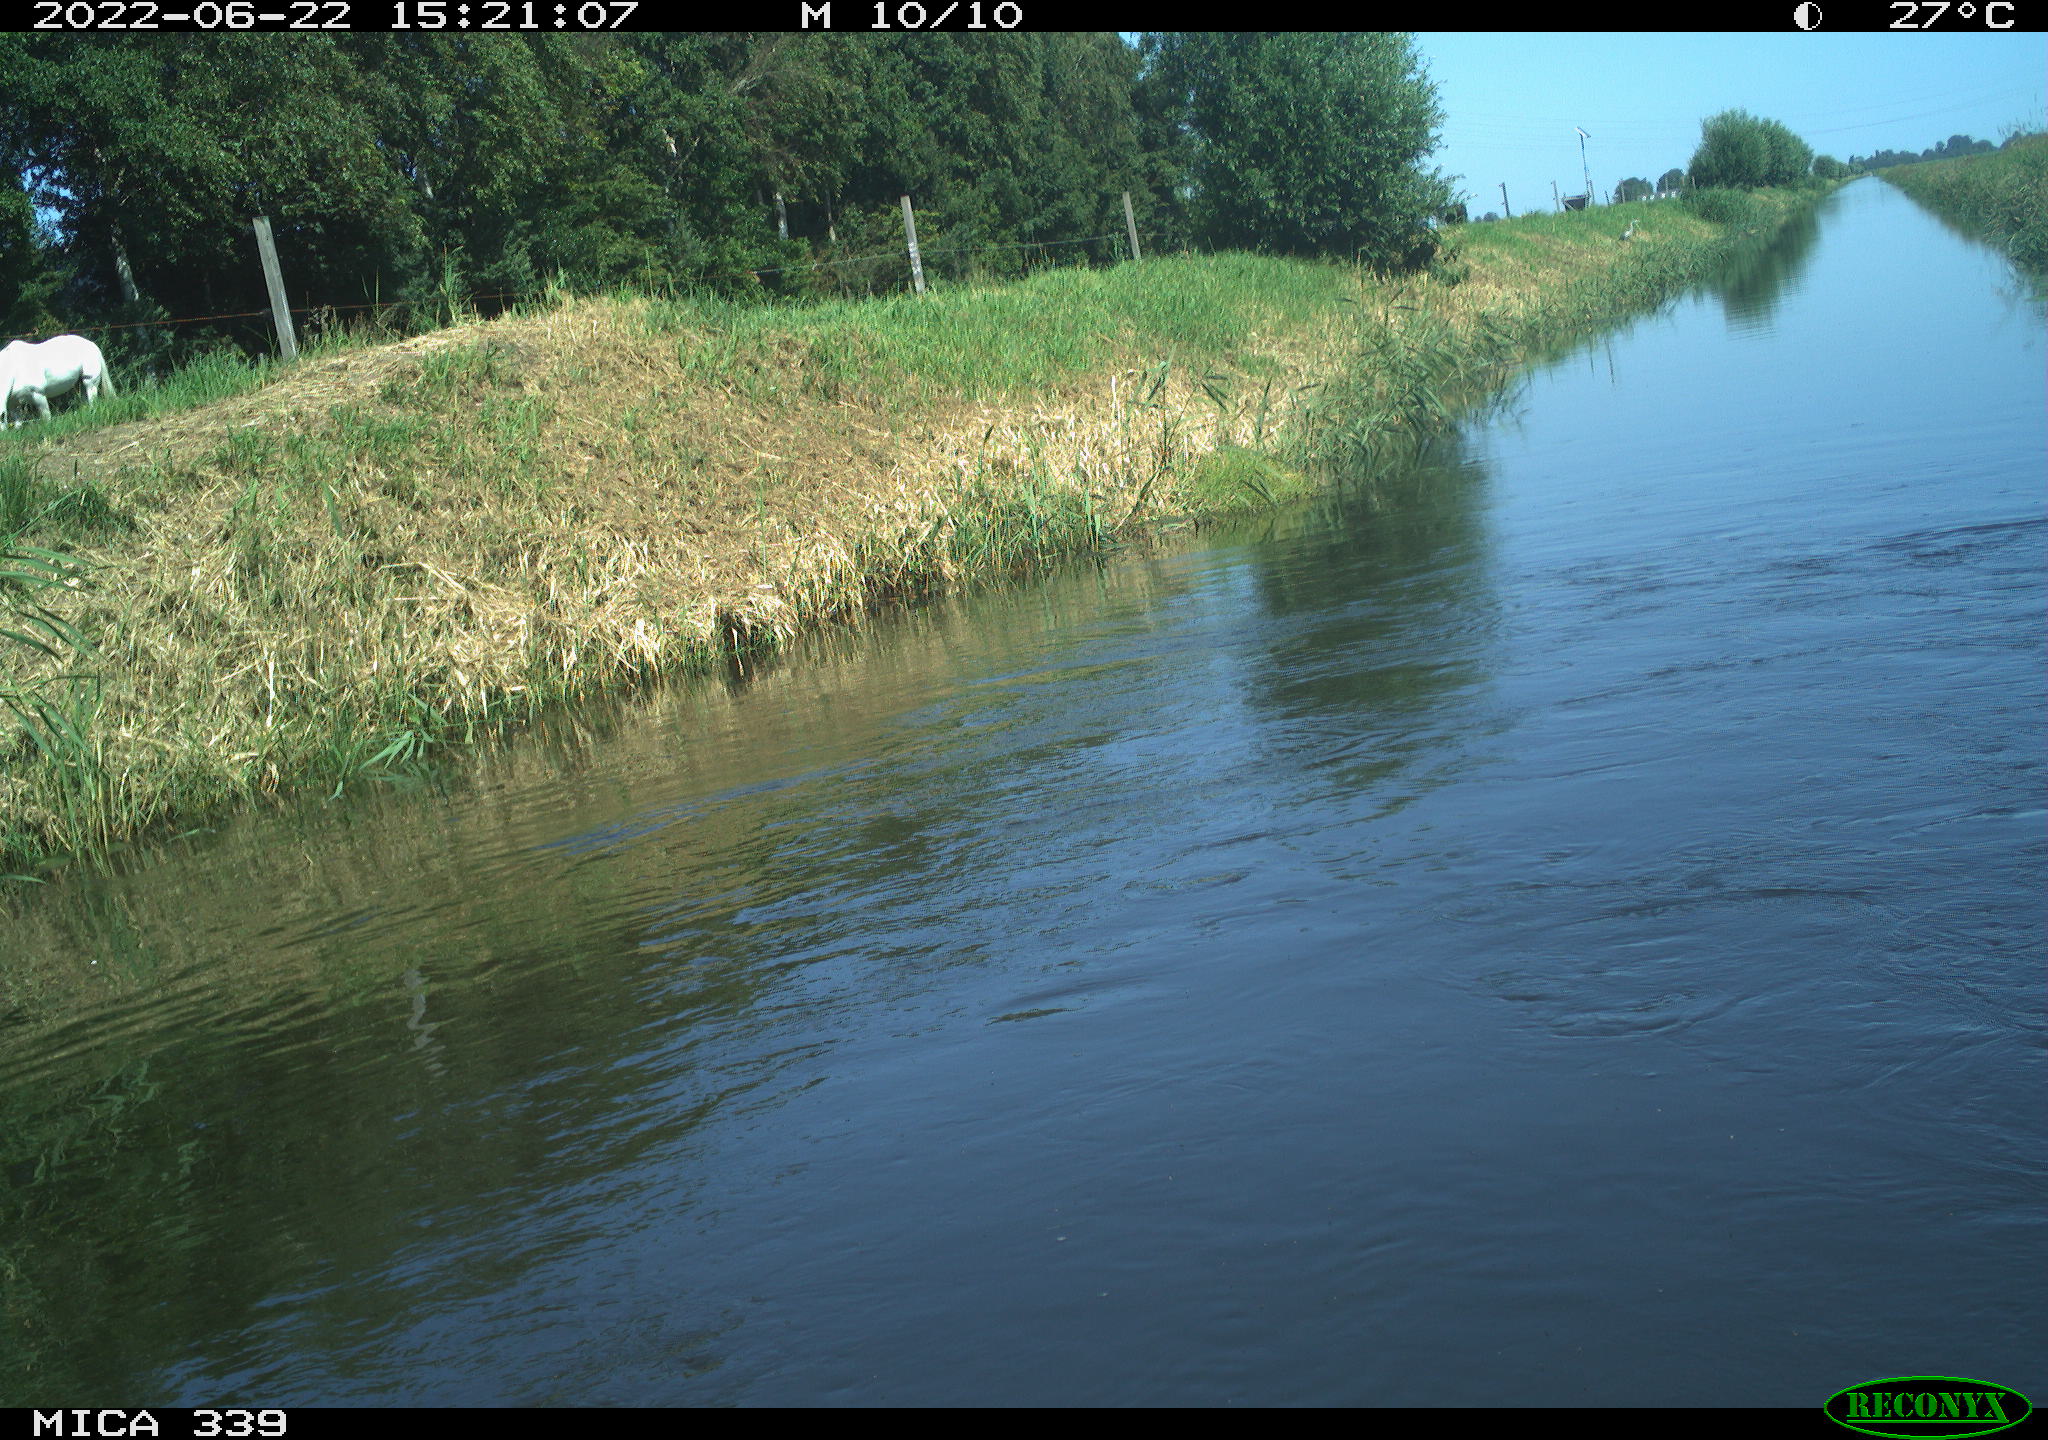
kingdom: Animalia
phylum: Chordata
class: Aves
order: Anseriformes
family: Anatidae
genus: Anas
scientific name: Anas platyrhynchos
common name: Mallard
